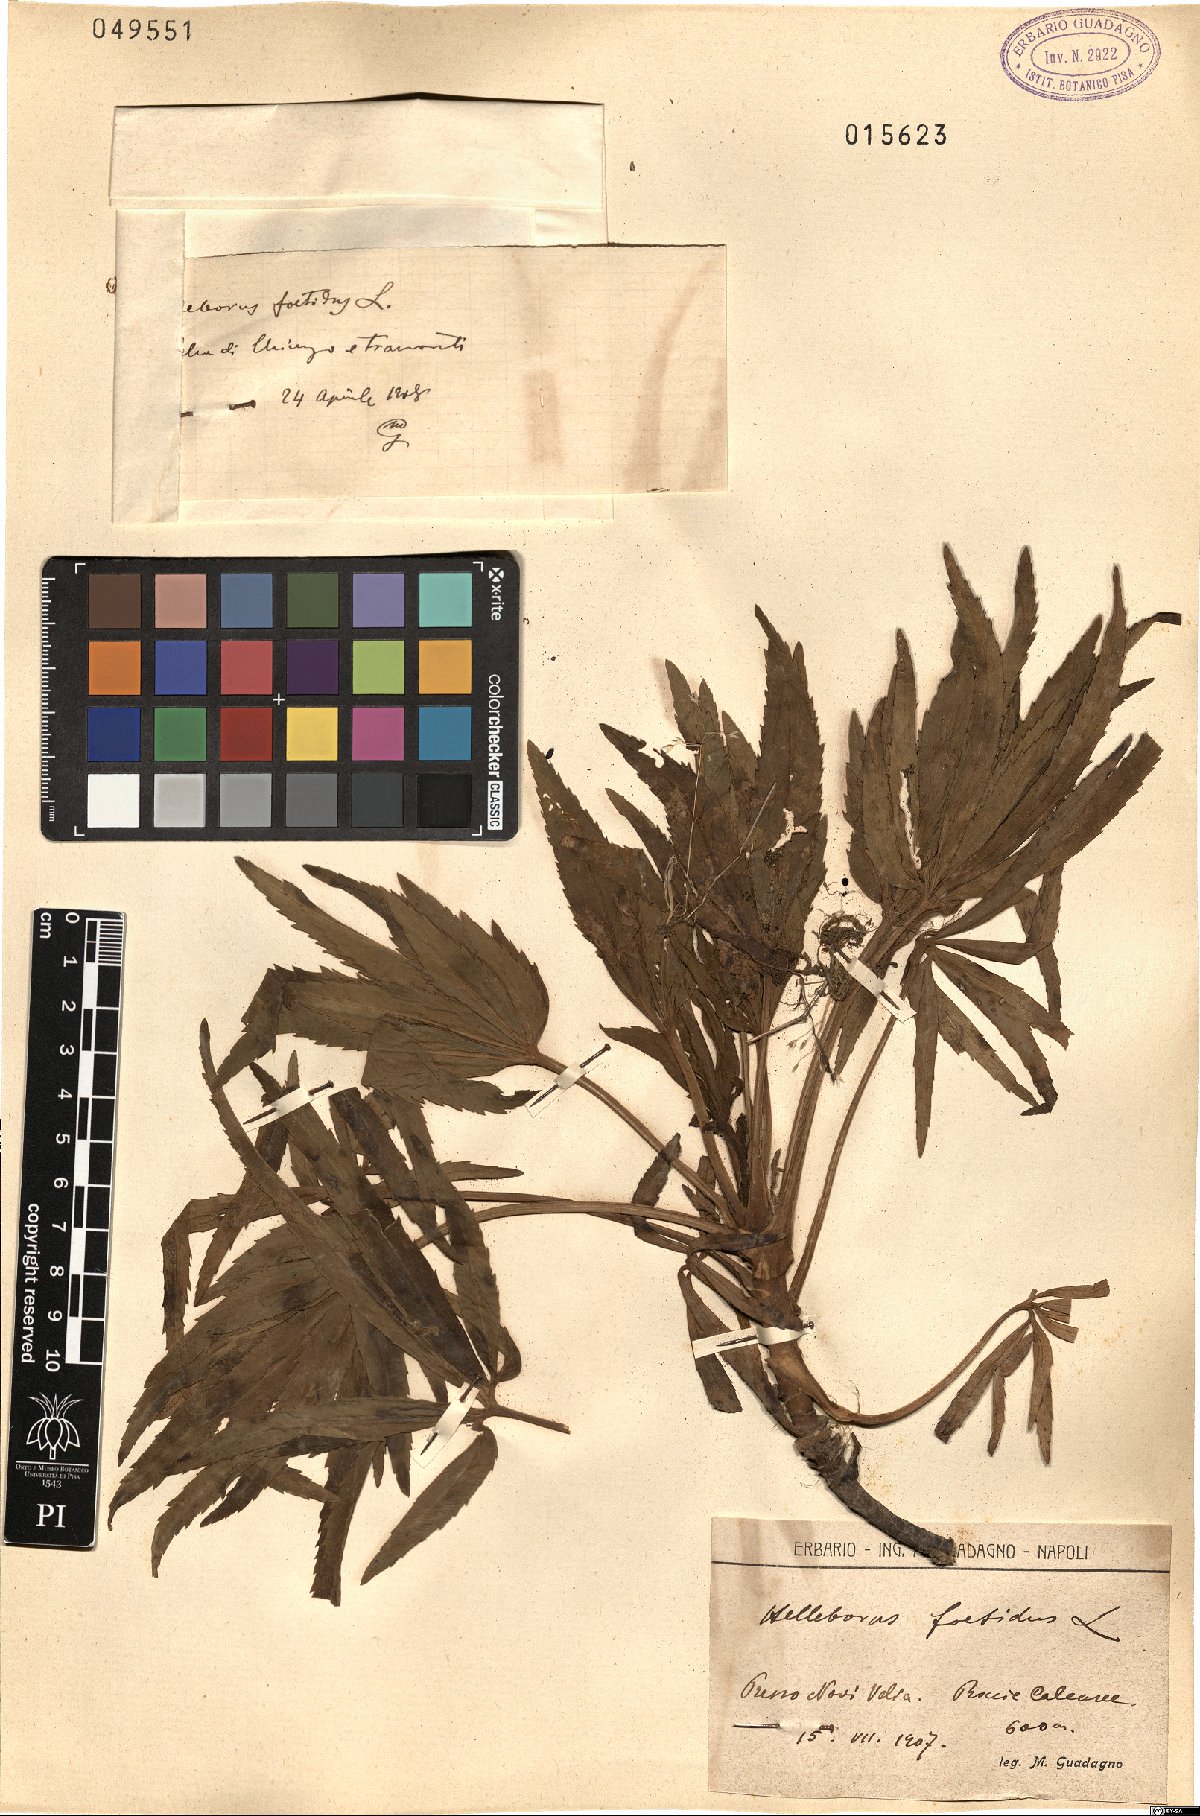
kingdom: Plantae
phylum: Tracheophyta
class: Magnoliopsida
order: Ranunculales
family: Ranunculaceae
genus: Helleborus
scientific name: Helleborus foetidus
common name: Stinking hellebore
